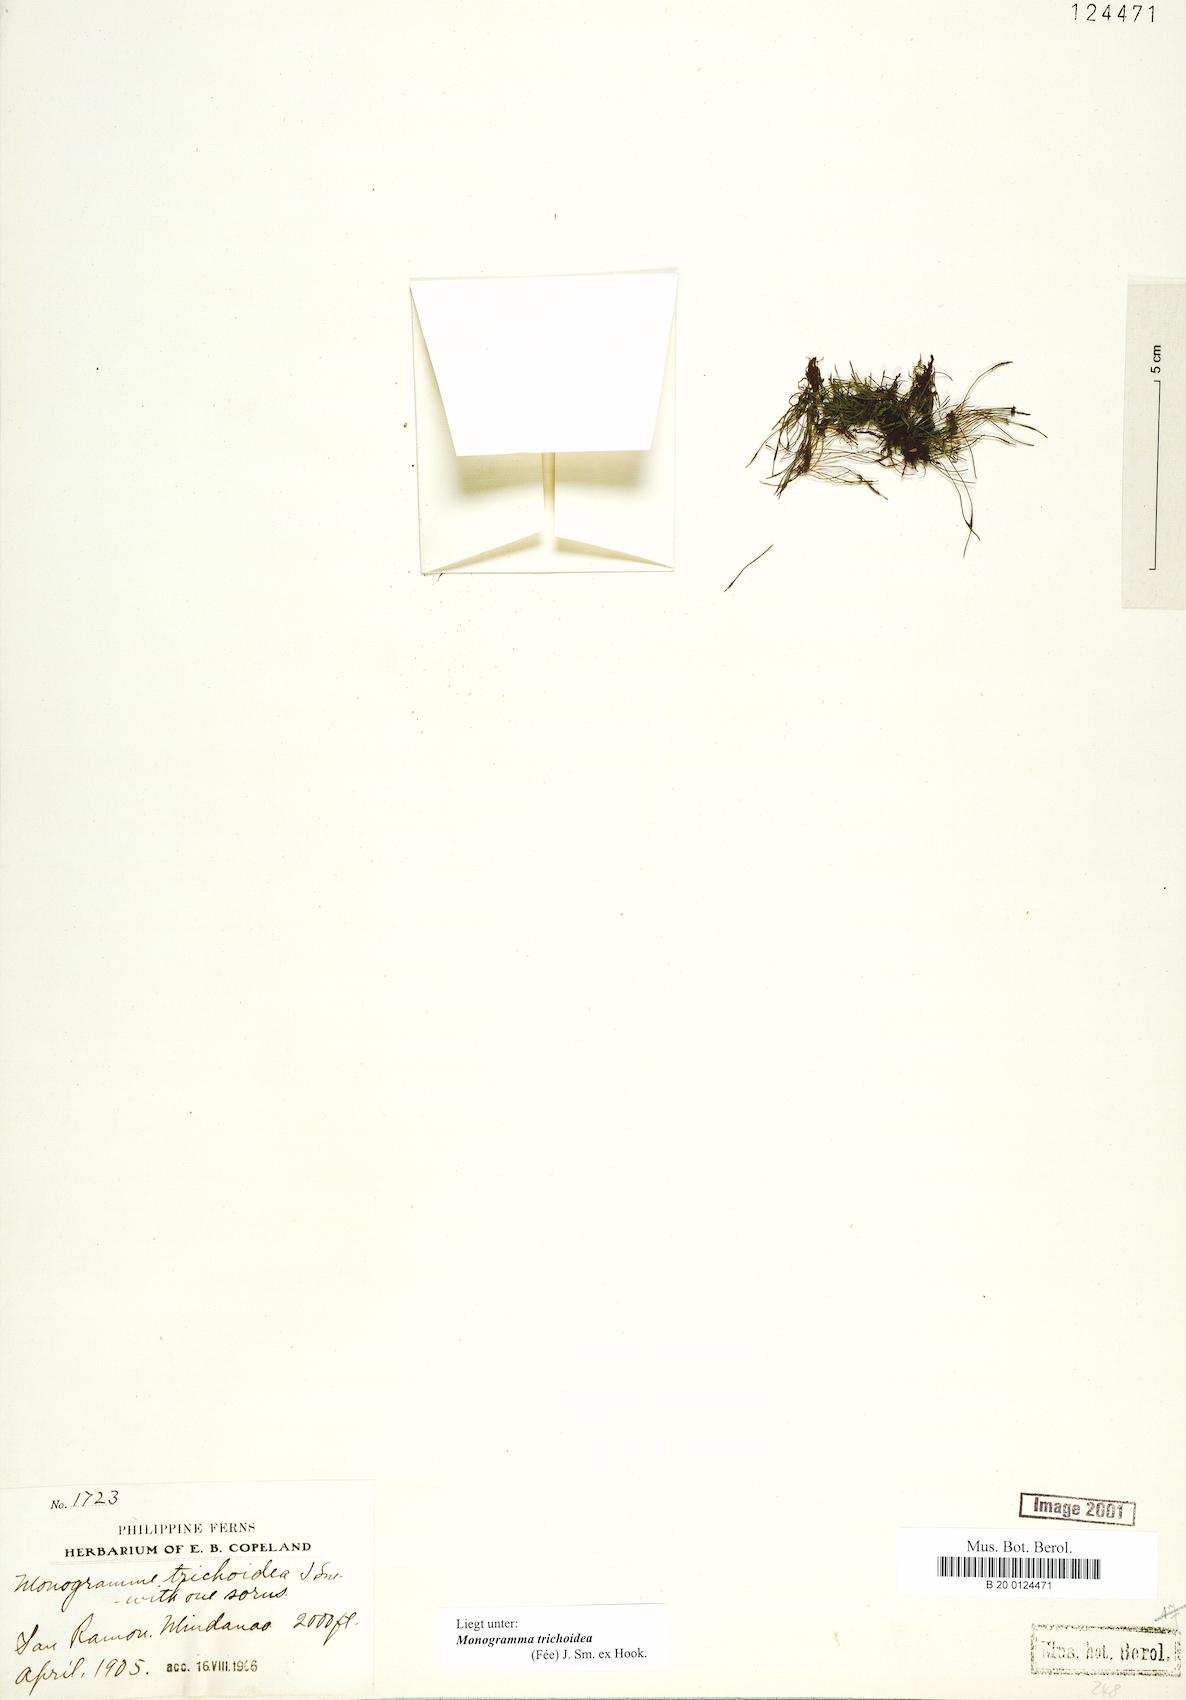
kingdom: Plantae
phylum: Tracheophyta
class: Polypodiopsida
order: Polypodiales
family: Pteridaceae
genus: Vaginularia
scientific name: Vaginularia trichoidea
